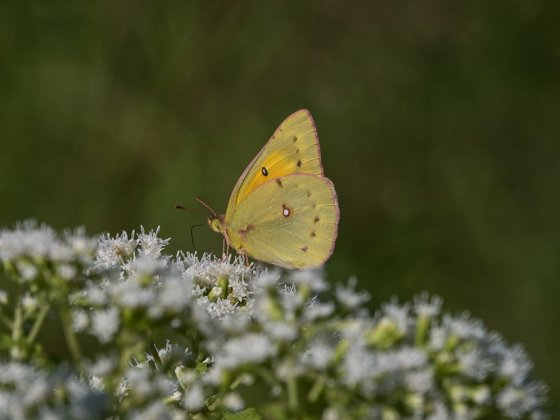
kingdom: Animalia
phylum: Arthropoda
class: Insecta
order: Lepidoptera
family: Pieridae
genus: Colias
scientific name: Colias eurytheme
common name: Orange Sulphur
